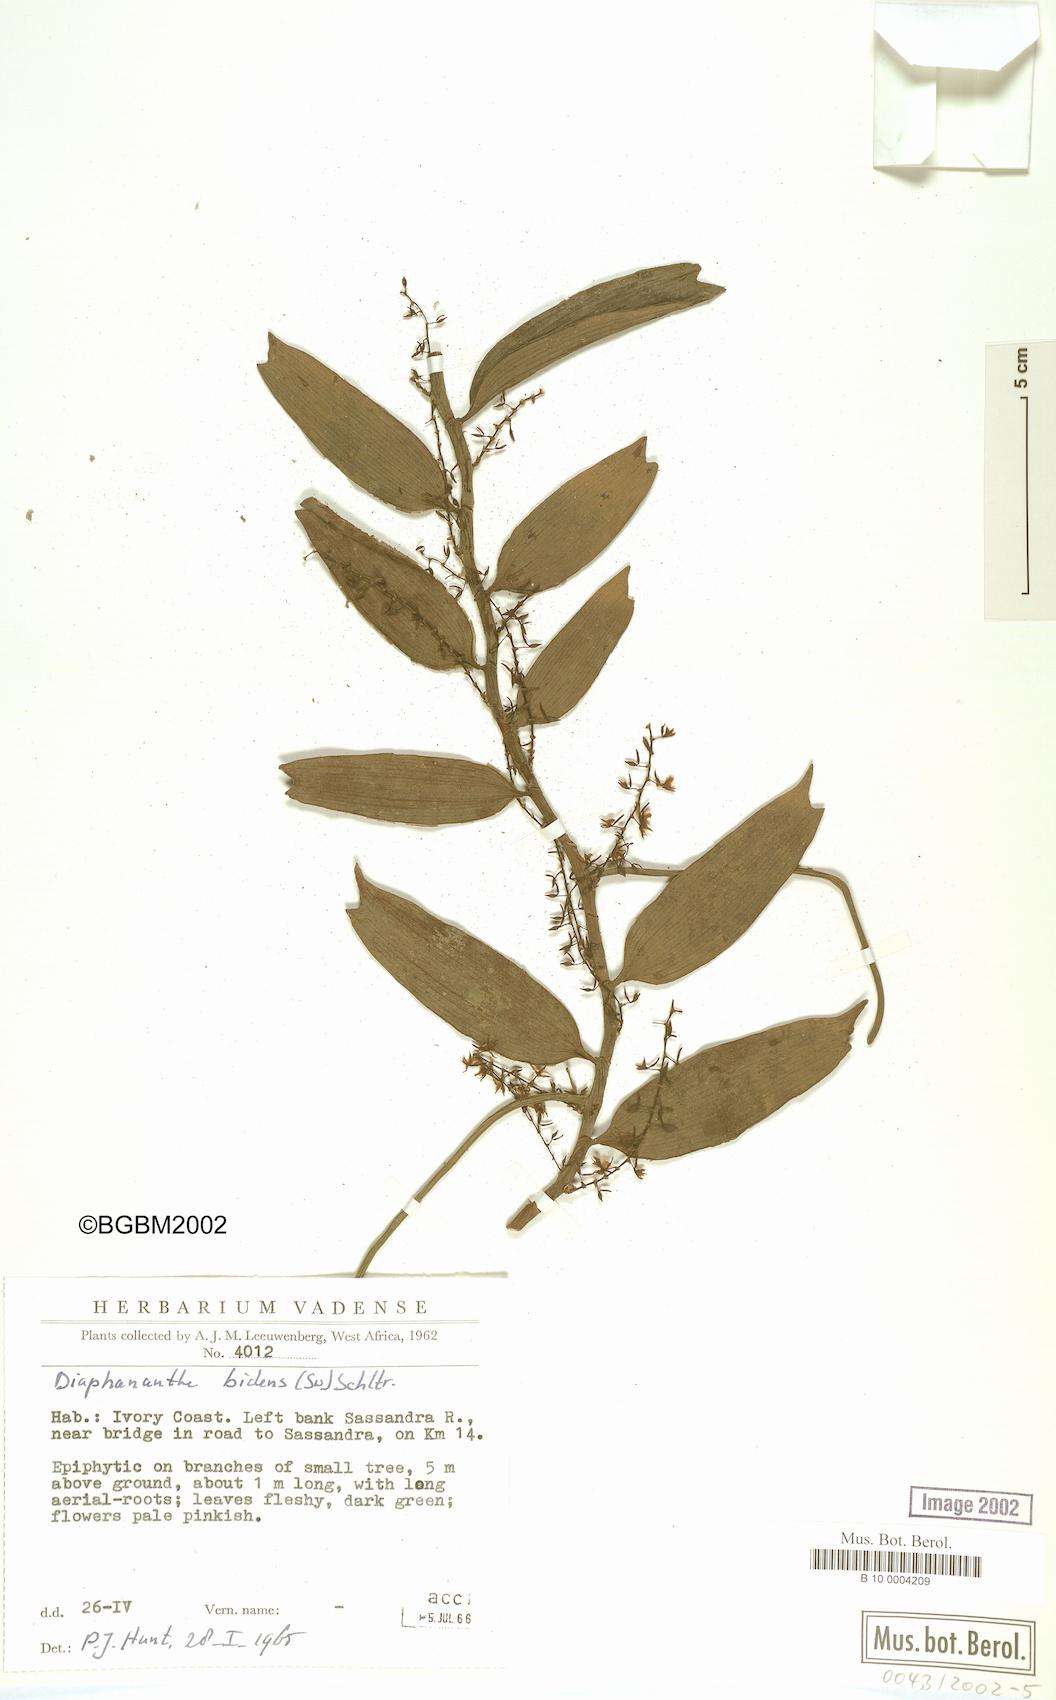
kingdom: Plantae
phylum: Tracheophyta
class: Liliopsida
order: Asparagales
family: Orchidaceae
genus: Diaphananthe
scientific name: Diaphananthe bidens
